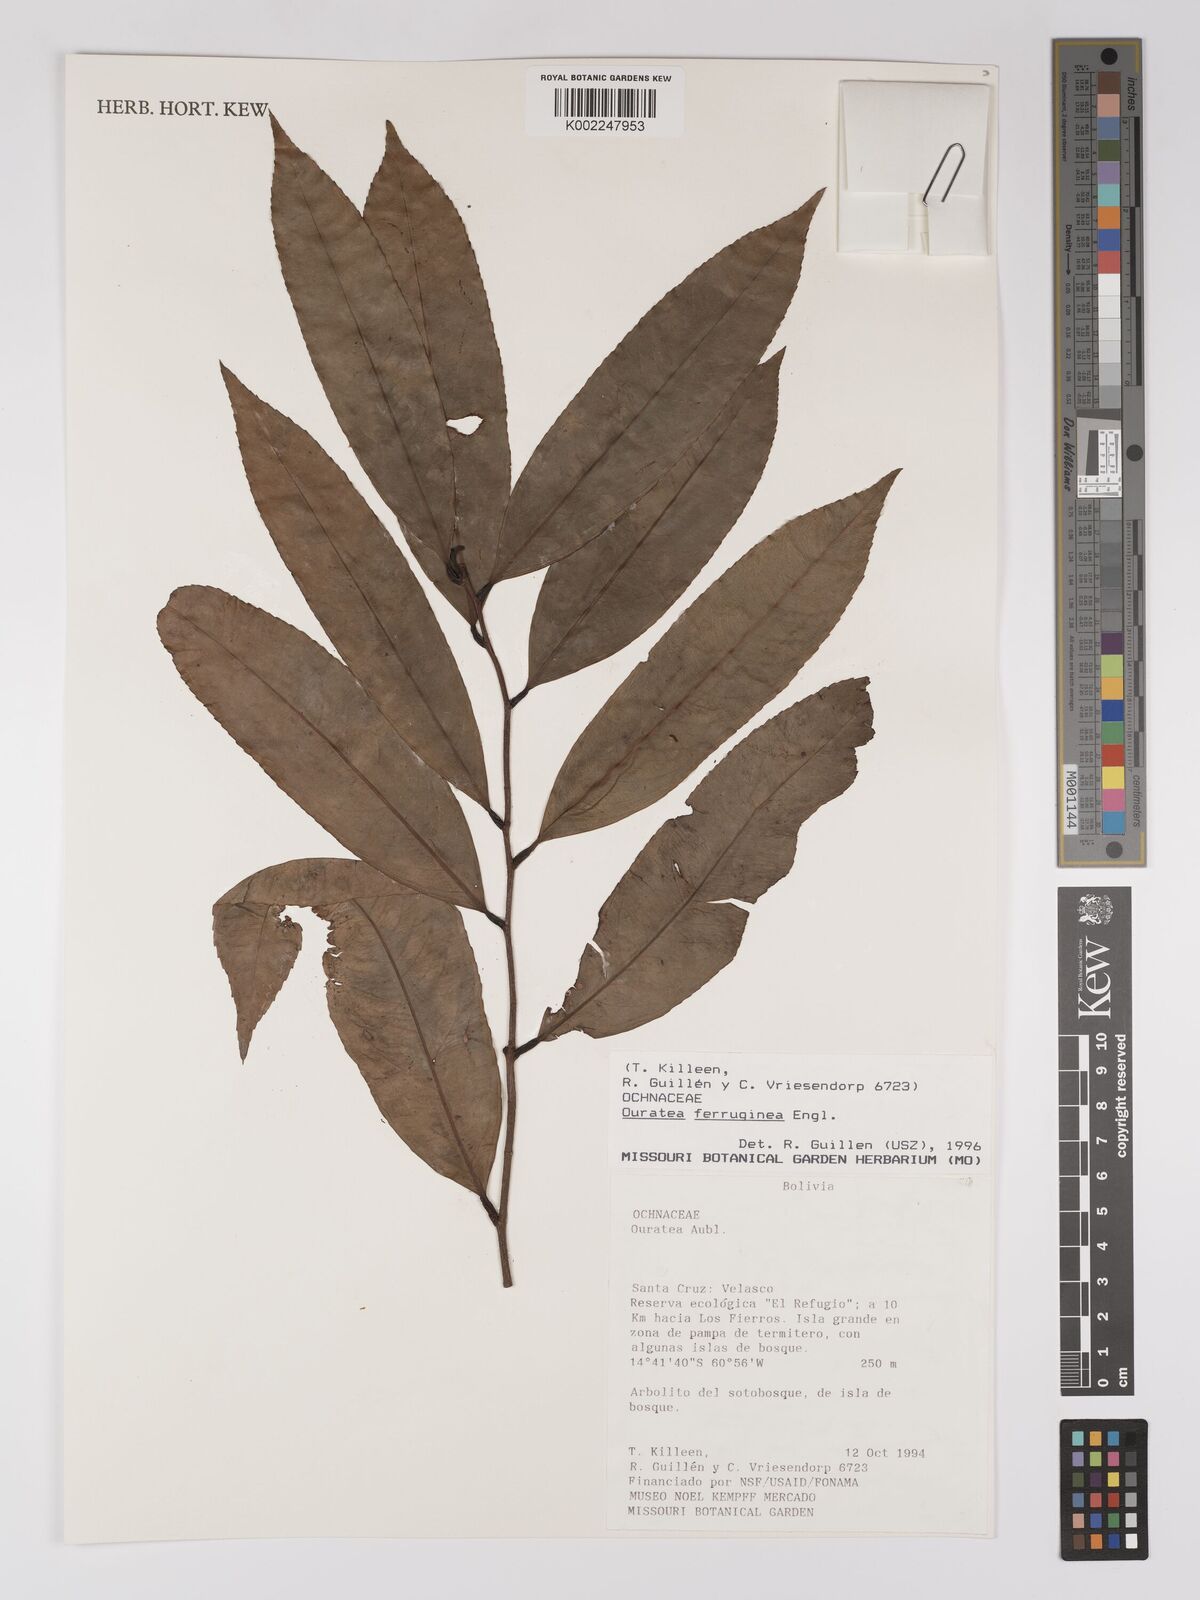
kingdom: Plantae
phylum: Tracheophyta
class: Magnoliopsida
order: Malpighiales
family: Ochnaceae
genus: Ouratea
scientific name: Ouratea ferruginea
